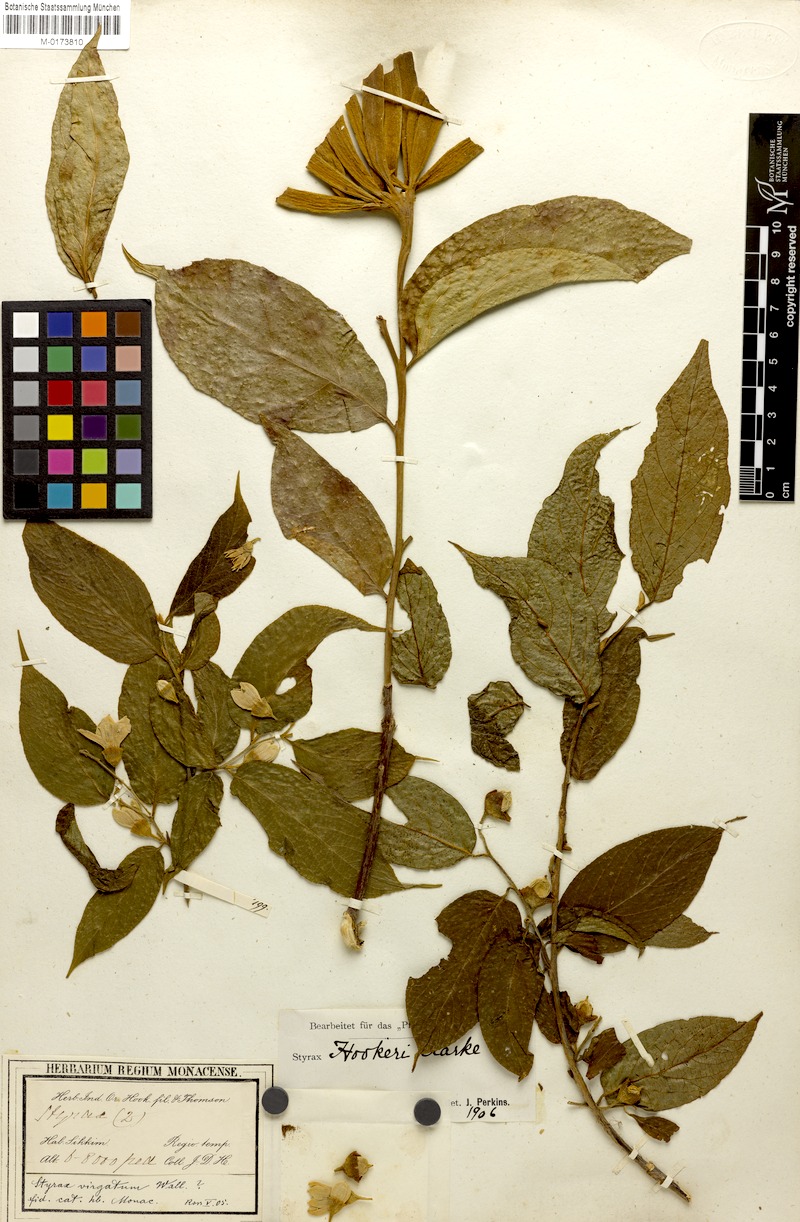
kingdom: Plantae
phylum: Tracheophyta
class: Magnoliopsida
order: Ericales
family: Styracaceae
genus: Styrax
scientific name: Styrax hookeri
